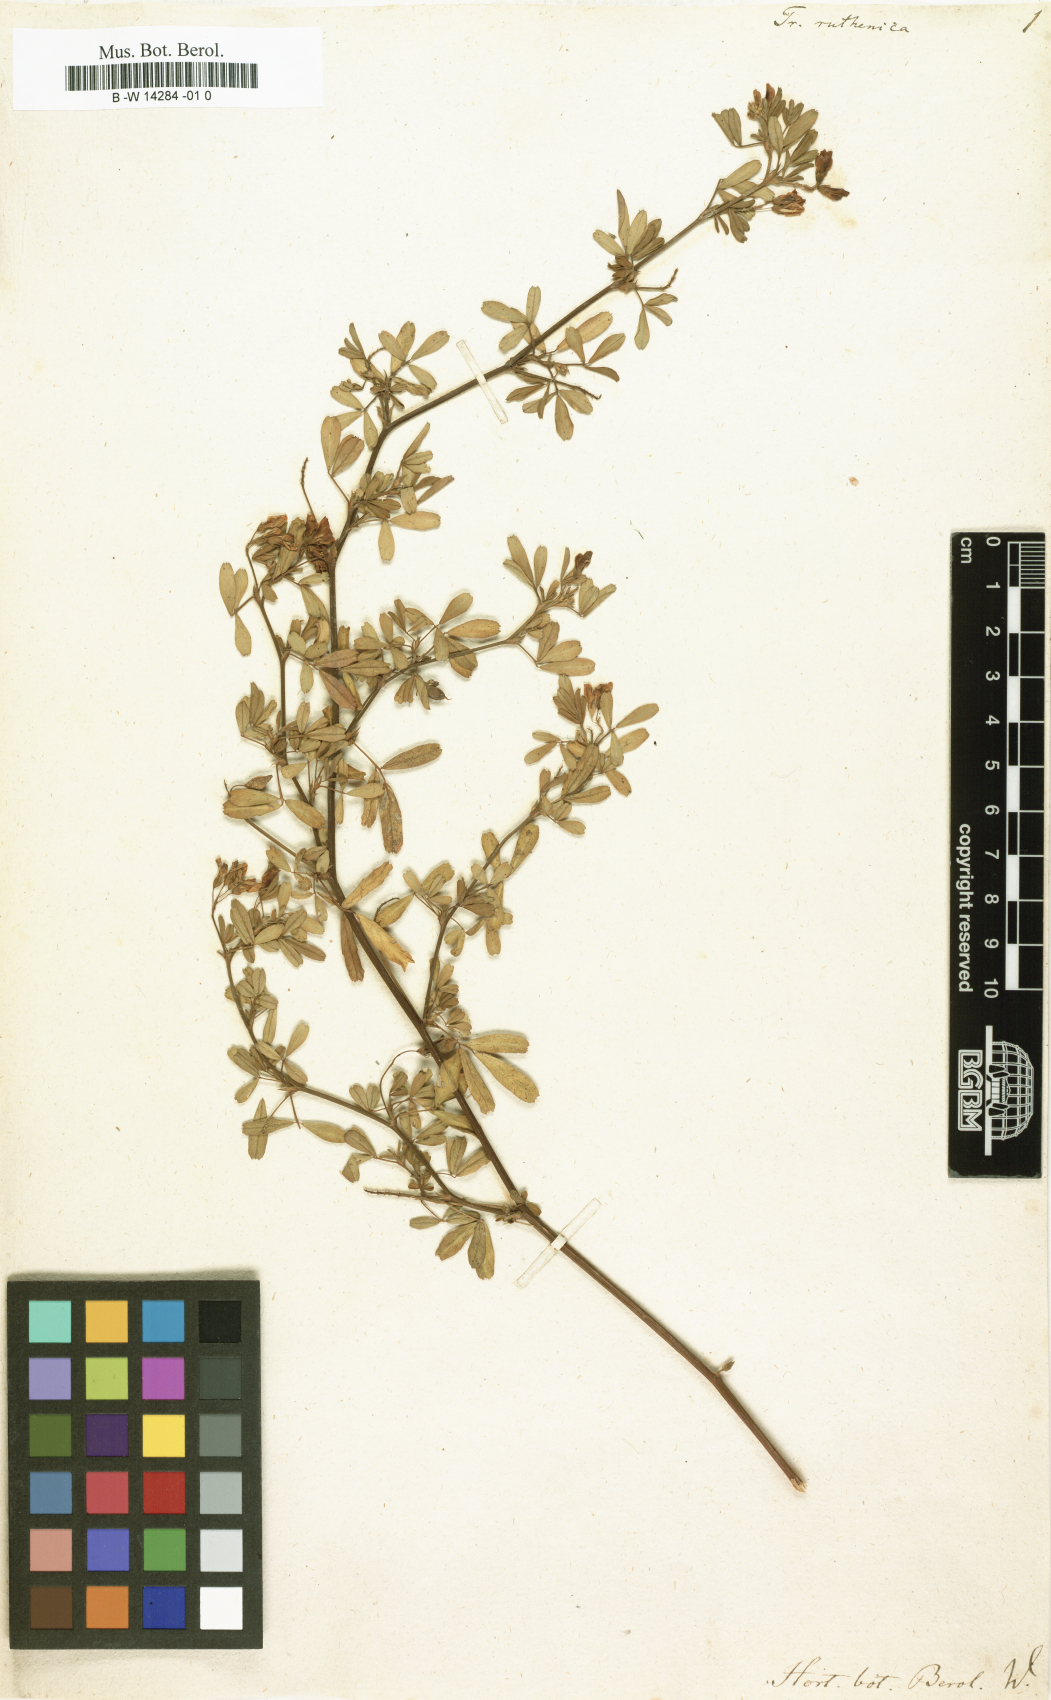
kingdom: Plantae
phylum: Tracheophyta
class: Magnoliopsida
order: Fabales
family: Fabaceae
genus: Medicago
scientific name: Medicago ruthenica
